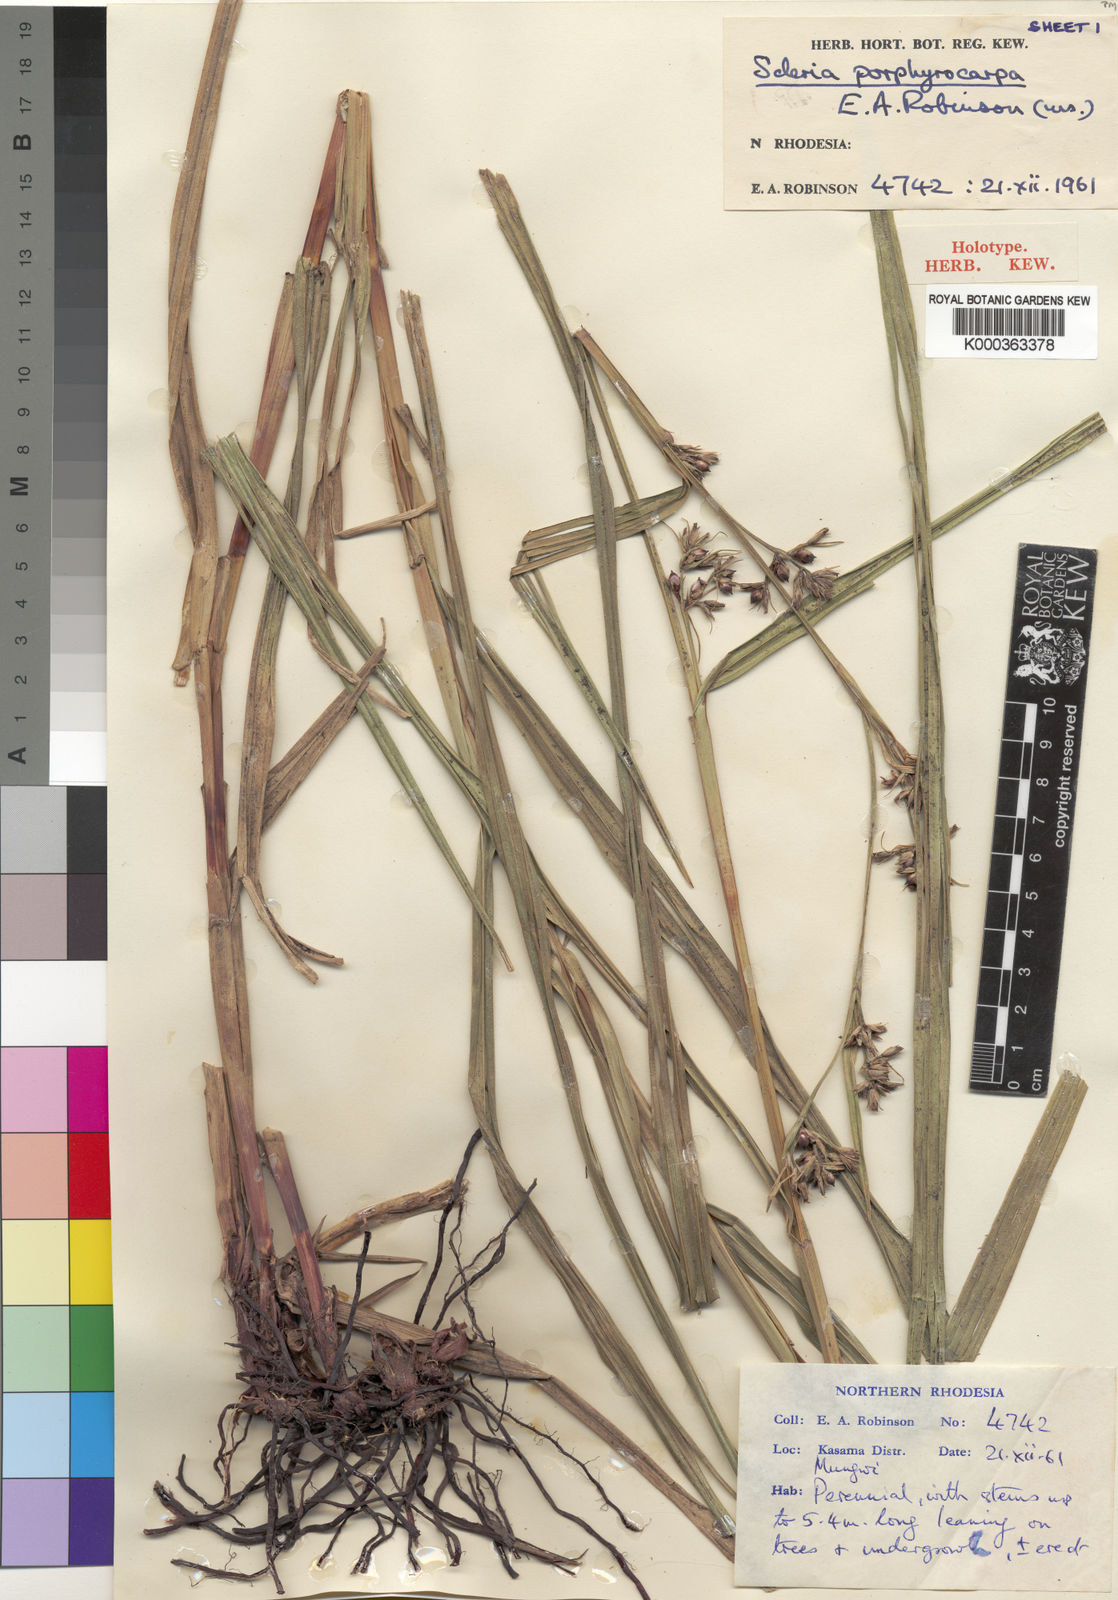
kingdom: Plantae
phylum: Tracheophyta
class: Liliopsida
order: Poales
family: Cyperaceae
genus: Scleria
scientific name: Scleria porphyrocarpa
